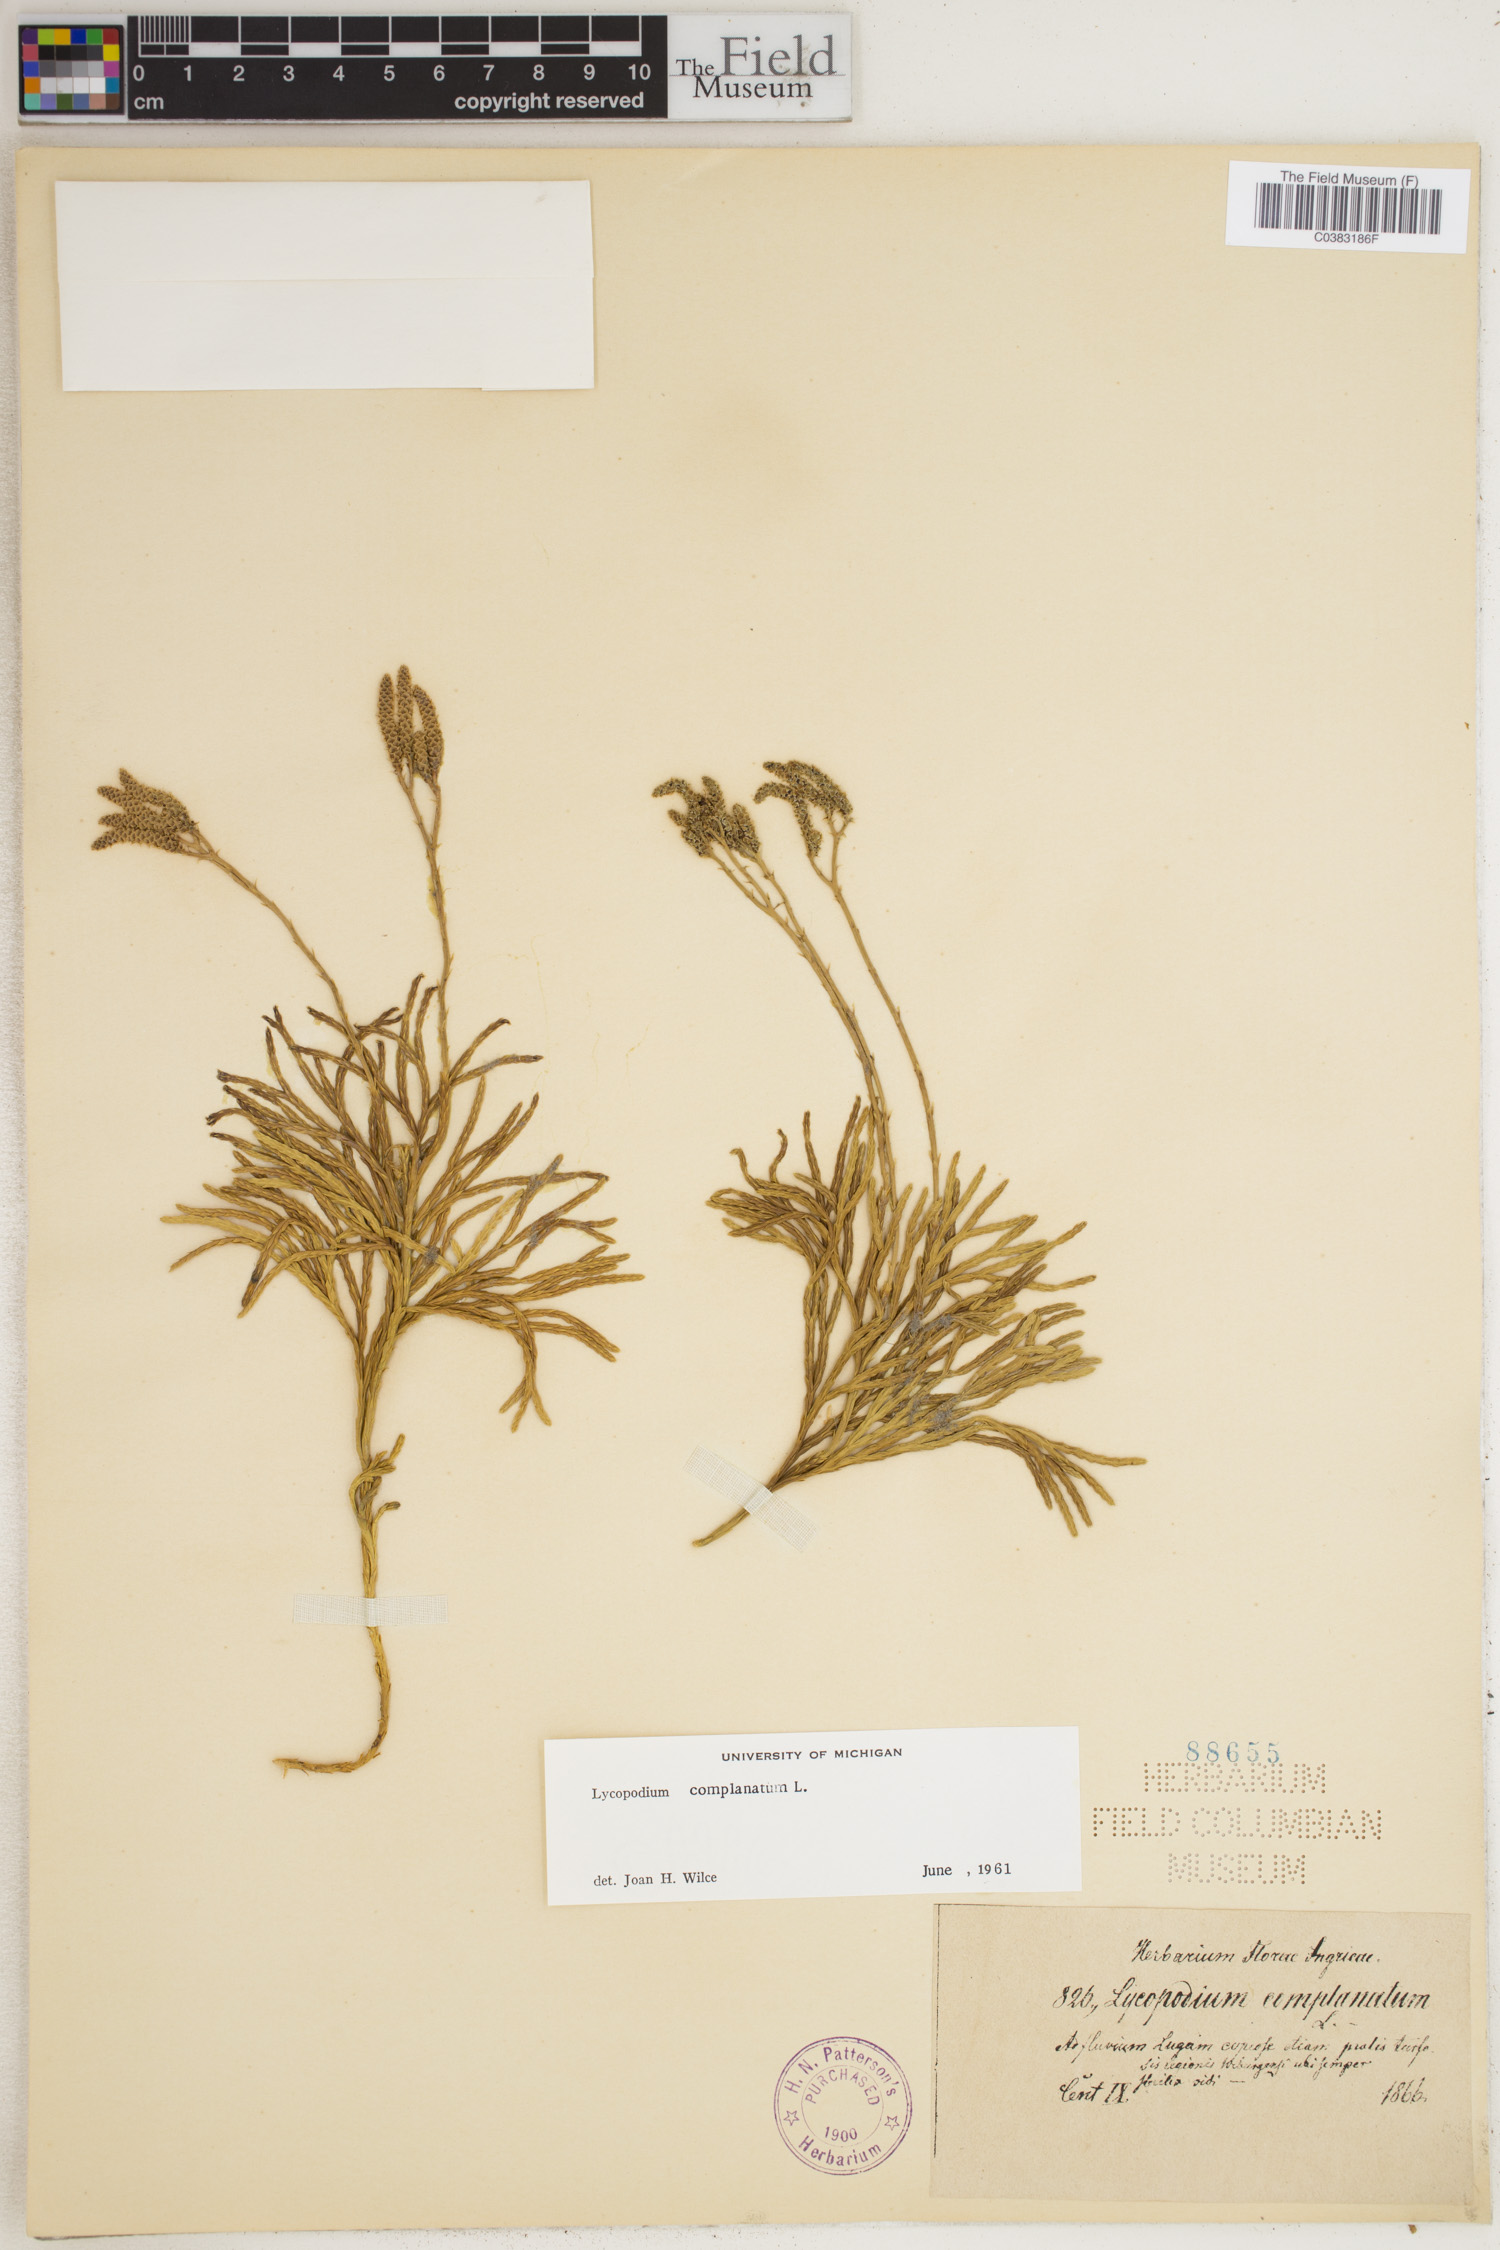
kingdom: Plantae
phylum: Tracheophyta
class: Lycopodiopsida
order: Lycopodiales
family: Lycopodiaceae
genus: Diphasiastrum
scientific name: Diphasiastrum complanatum
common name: Northern running-pine
